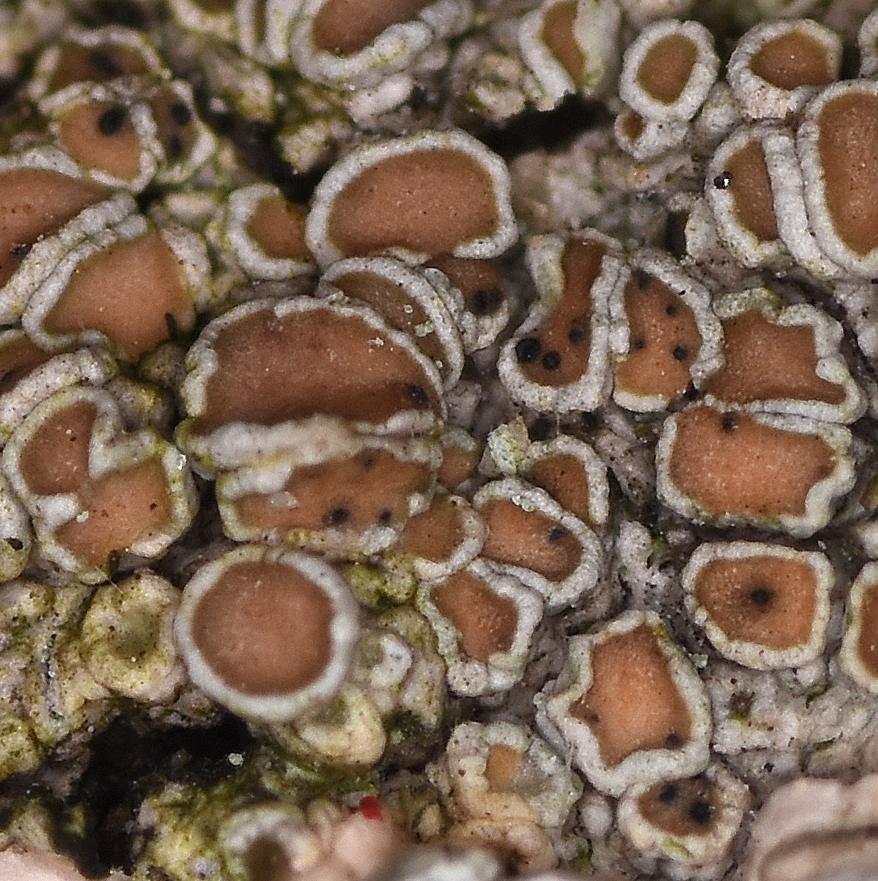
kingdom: Fungi
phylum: Ascomycota
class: Dothideomycetes
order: Pleosporales
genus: Vouauxiella
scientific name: Vouauxiella lichenicola
